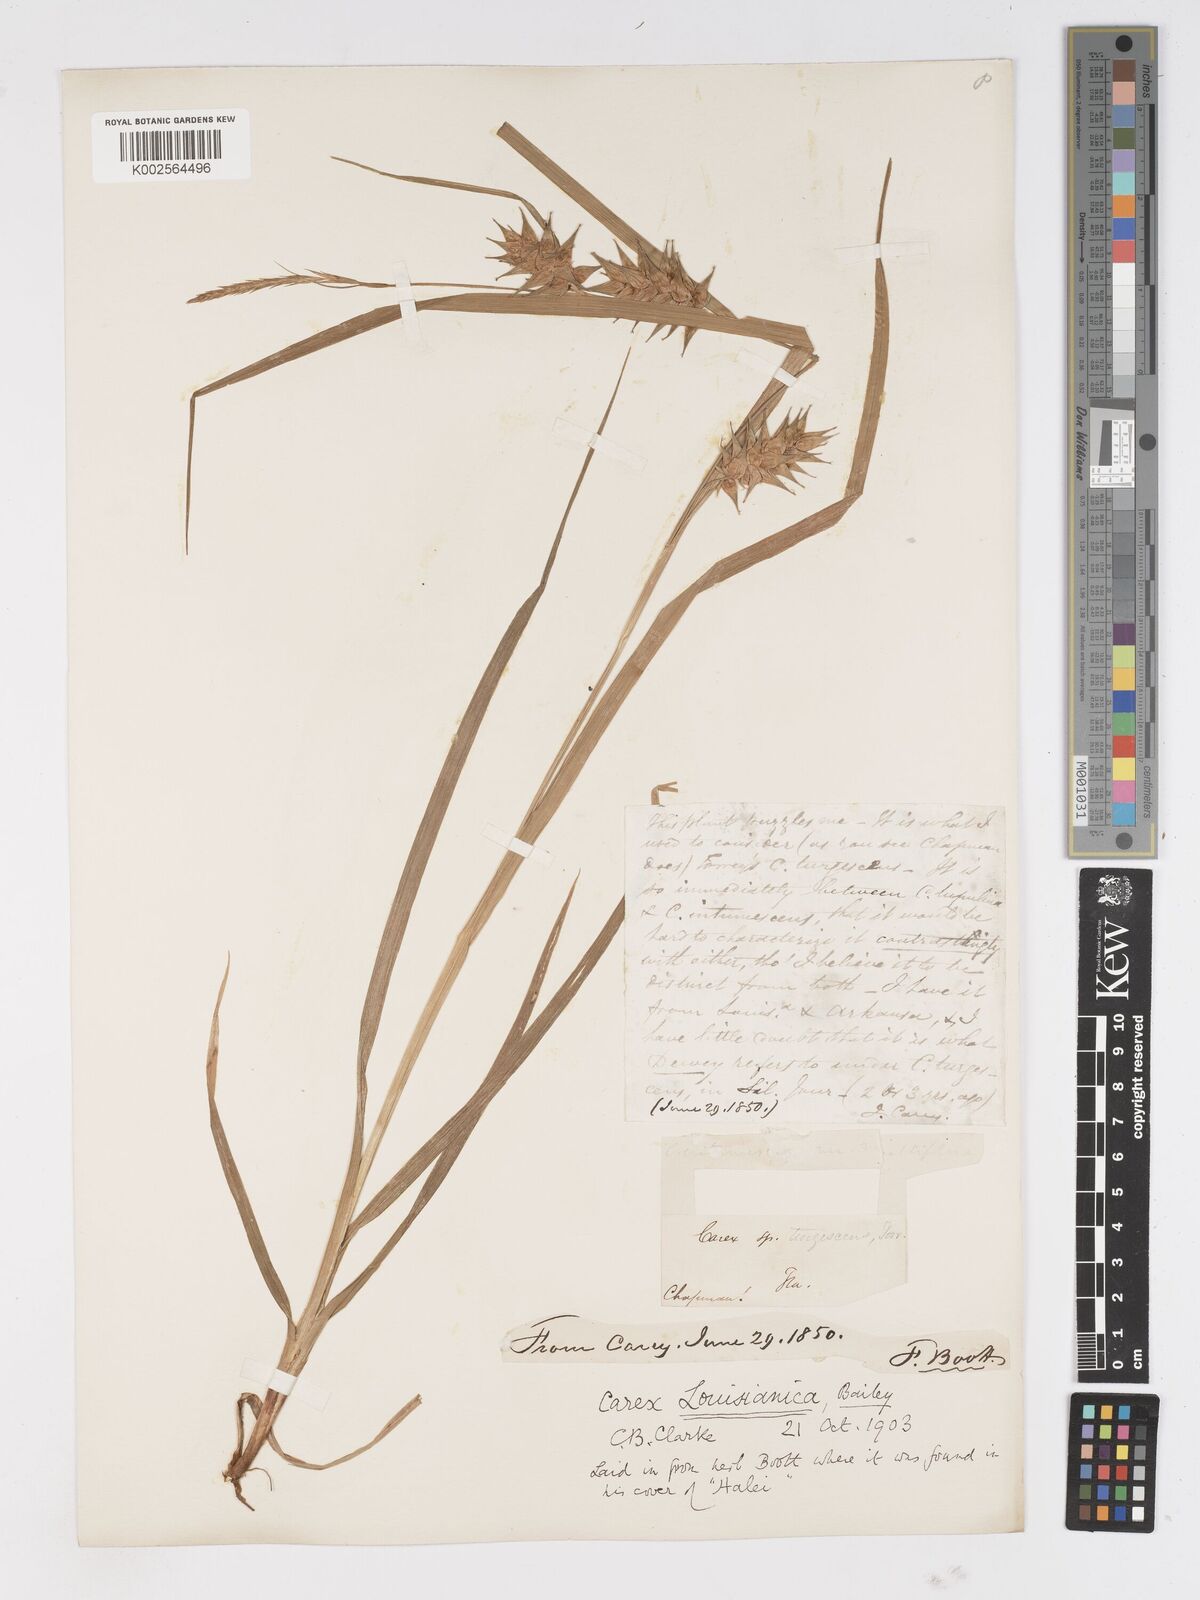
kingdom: Plantae
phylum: Tracheophyta
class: Liliopsida
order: Poales
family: Cyperaceae
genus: Carex
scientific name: Carex louisianica
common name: Louisiana sedge
